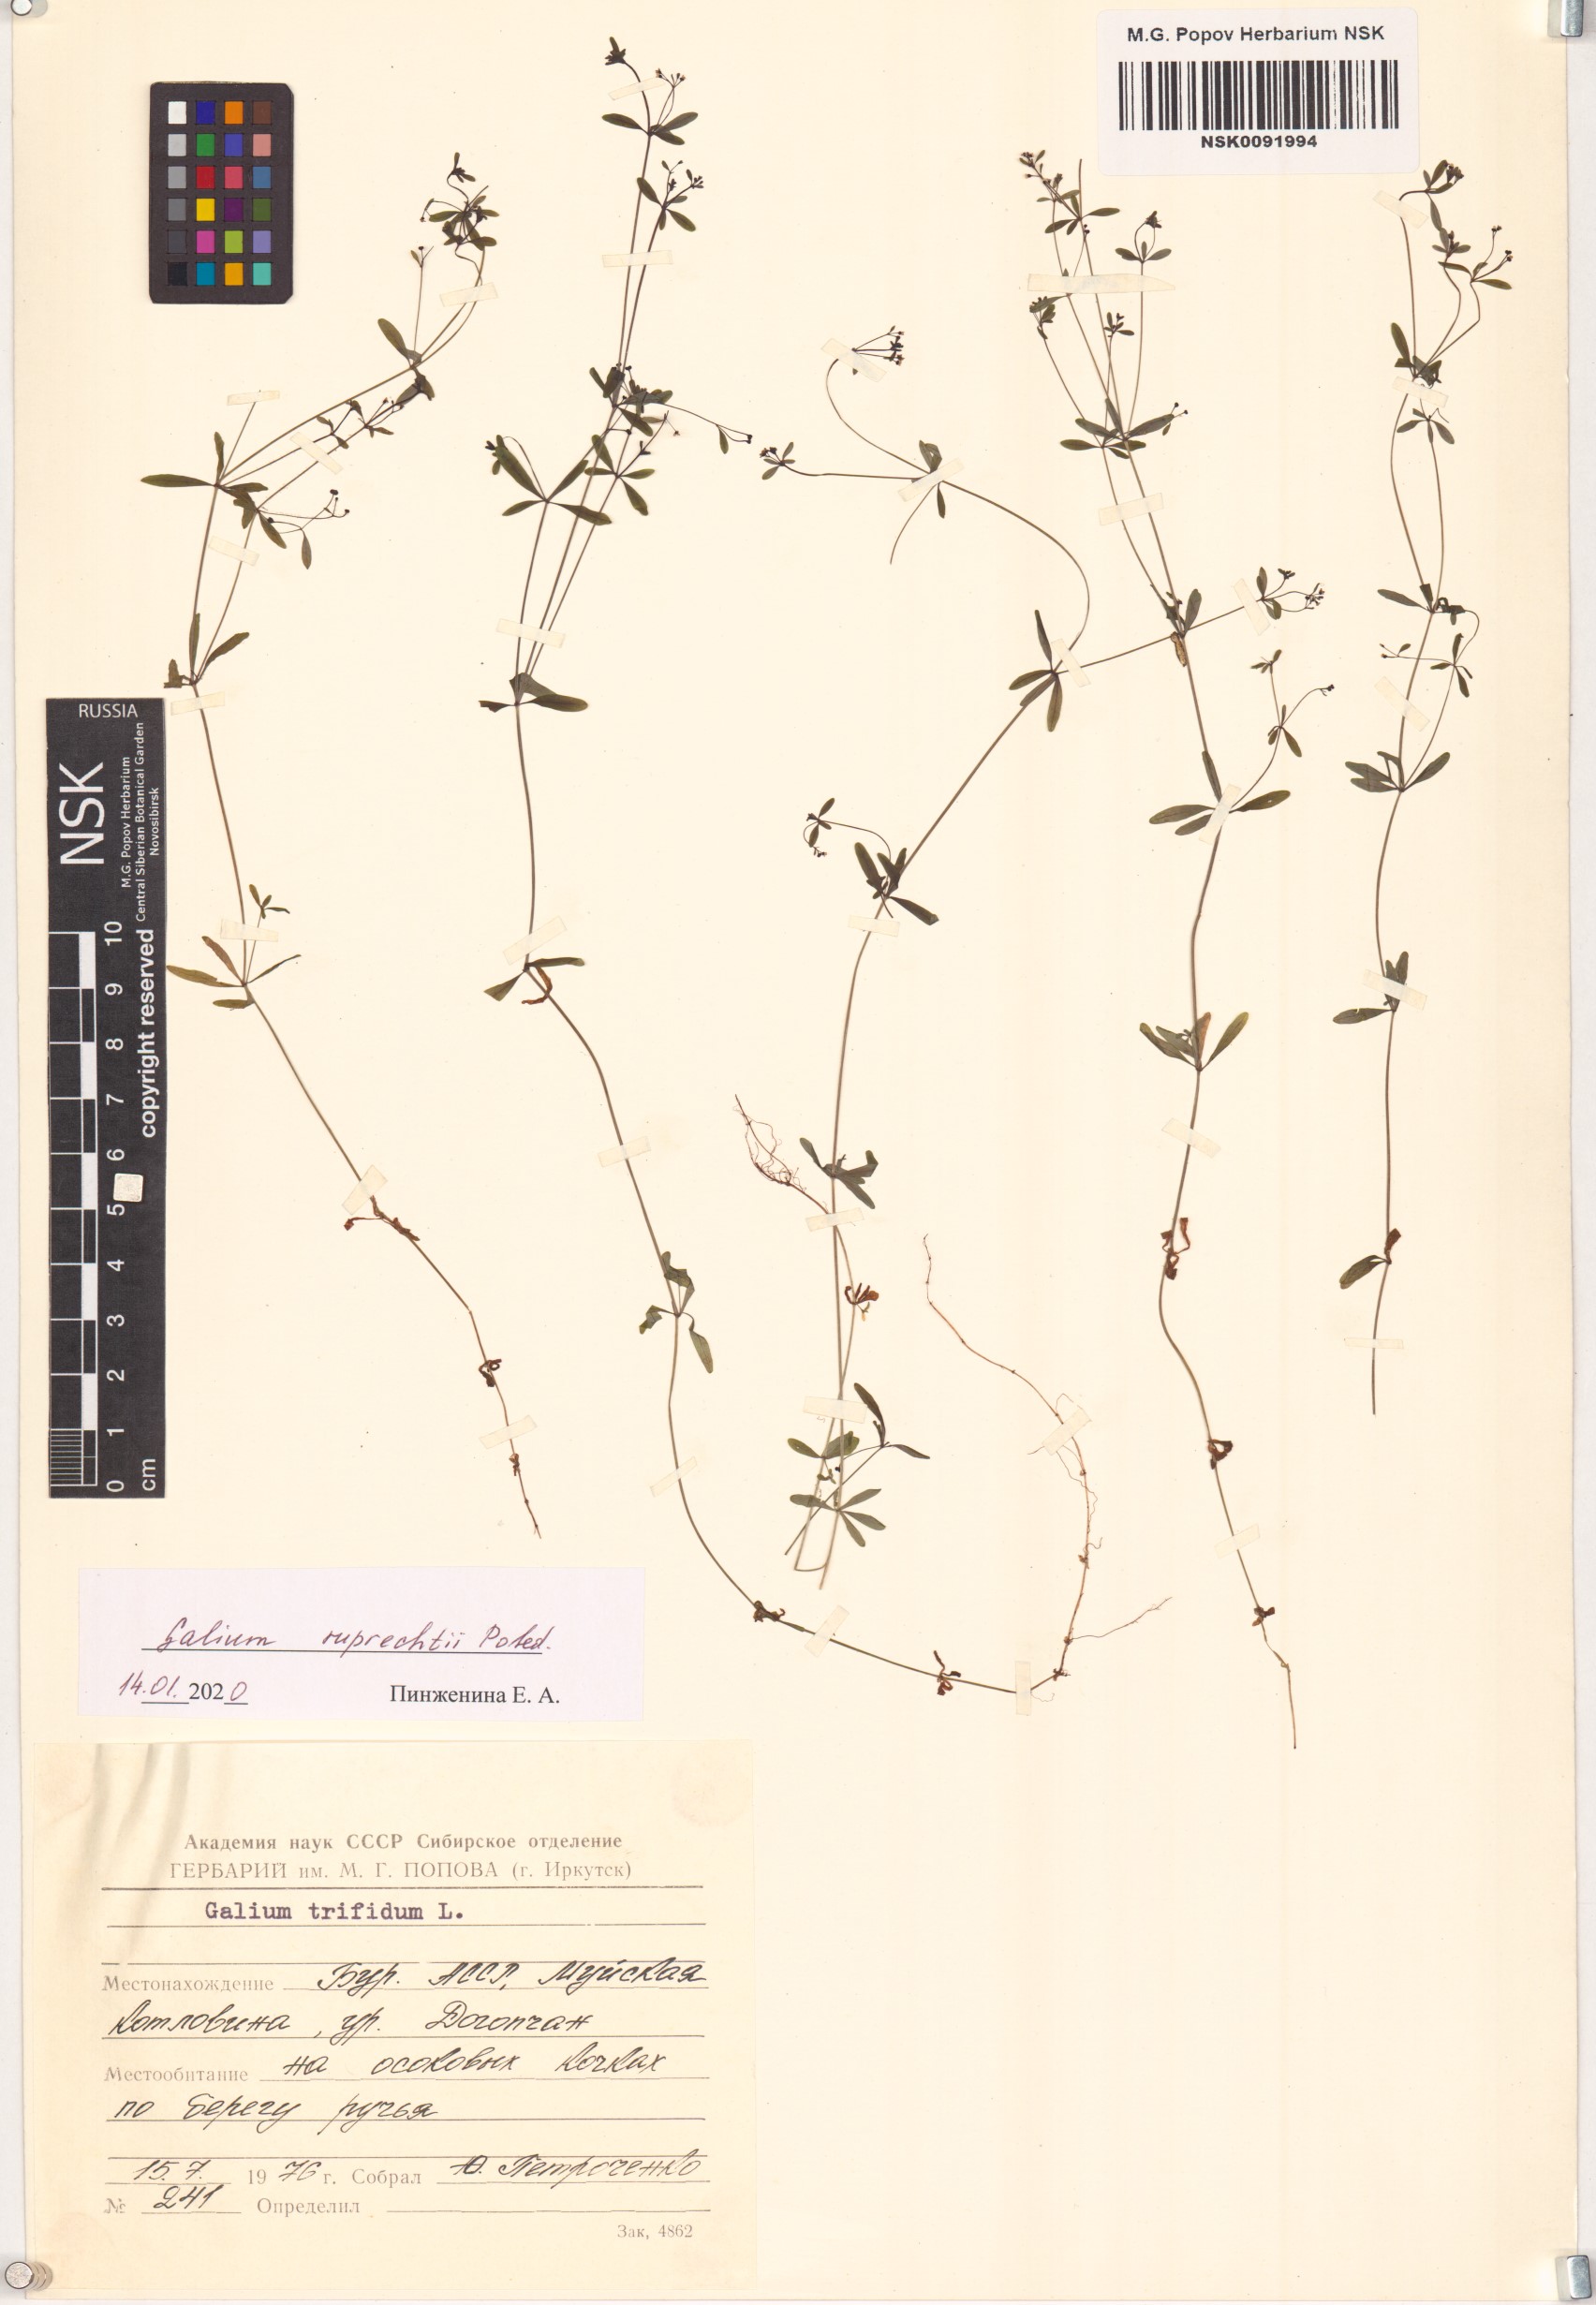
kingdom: Plantae
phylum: Tracheophyta
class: Magnoliopsida
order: Gentianales
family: Rubiaceae
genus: Galium
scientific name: Galium trifidum
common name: Small bedstraw
